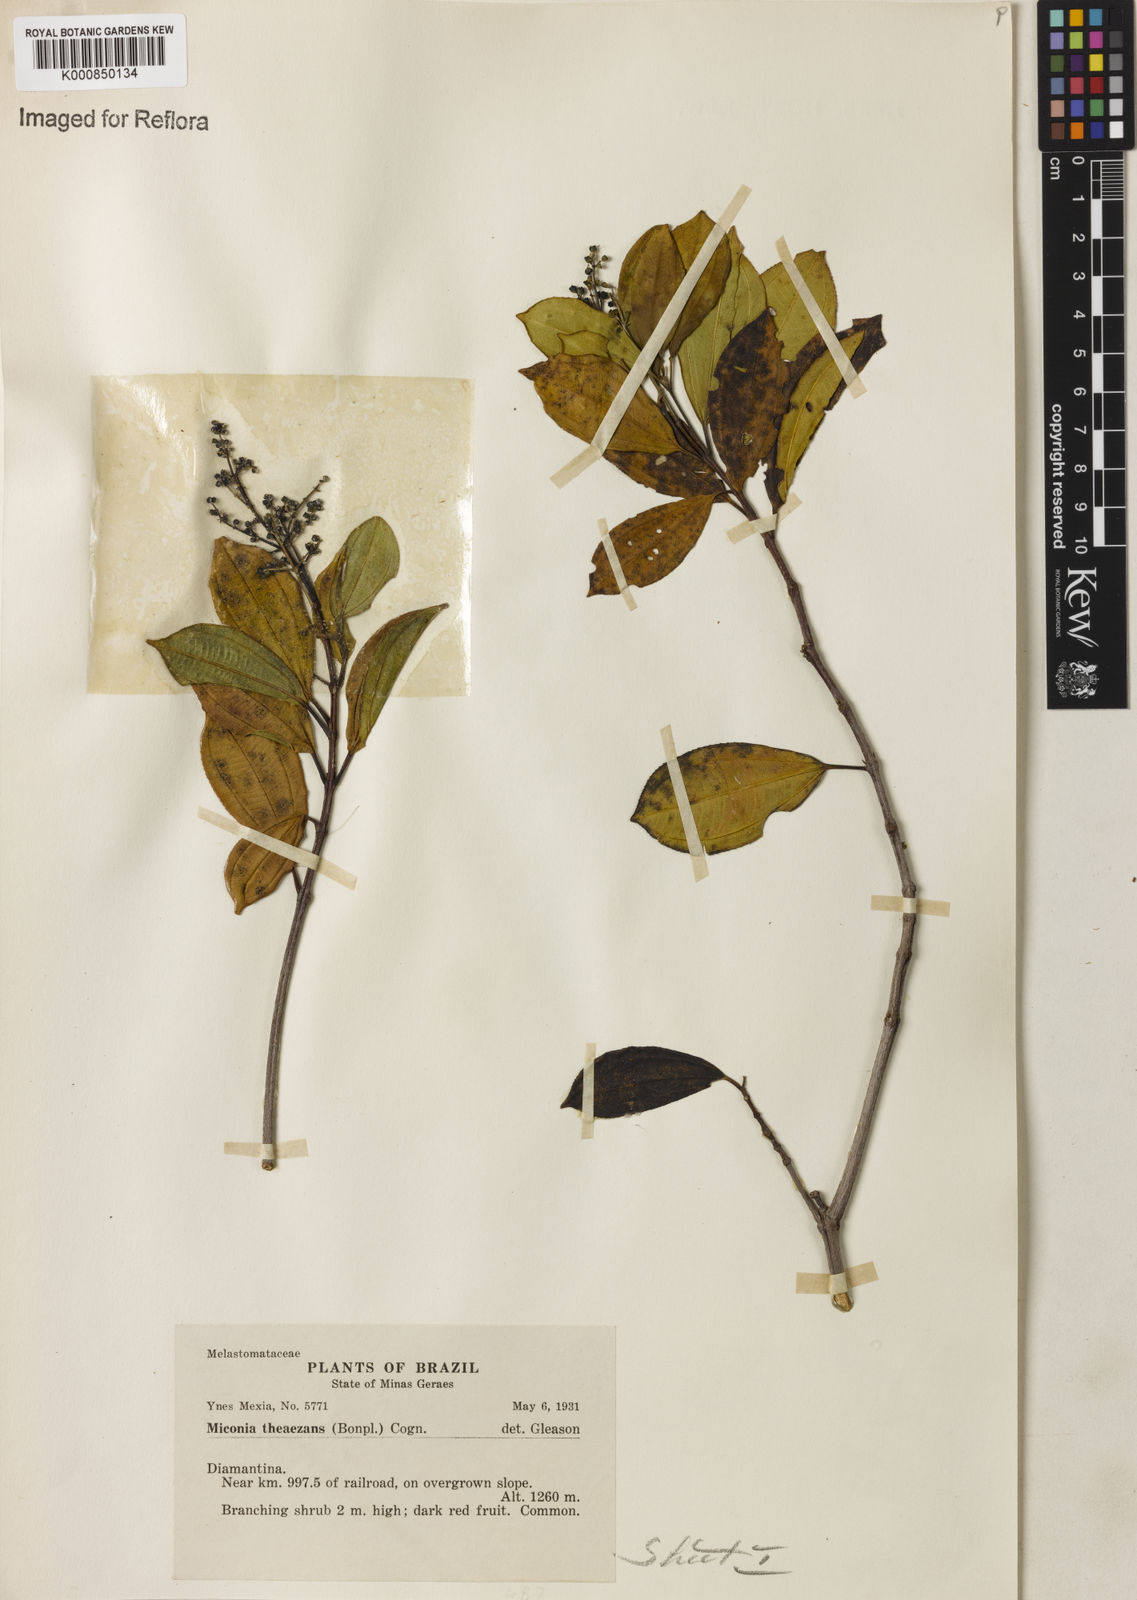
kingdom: Plantae
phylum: Tracheophyta
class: Magnoliopsida
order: Myrtales
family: Melastomataceae
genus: Miconia
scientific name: Miconia
